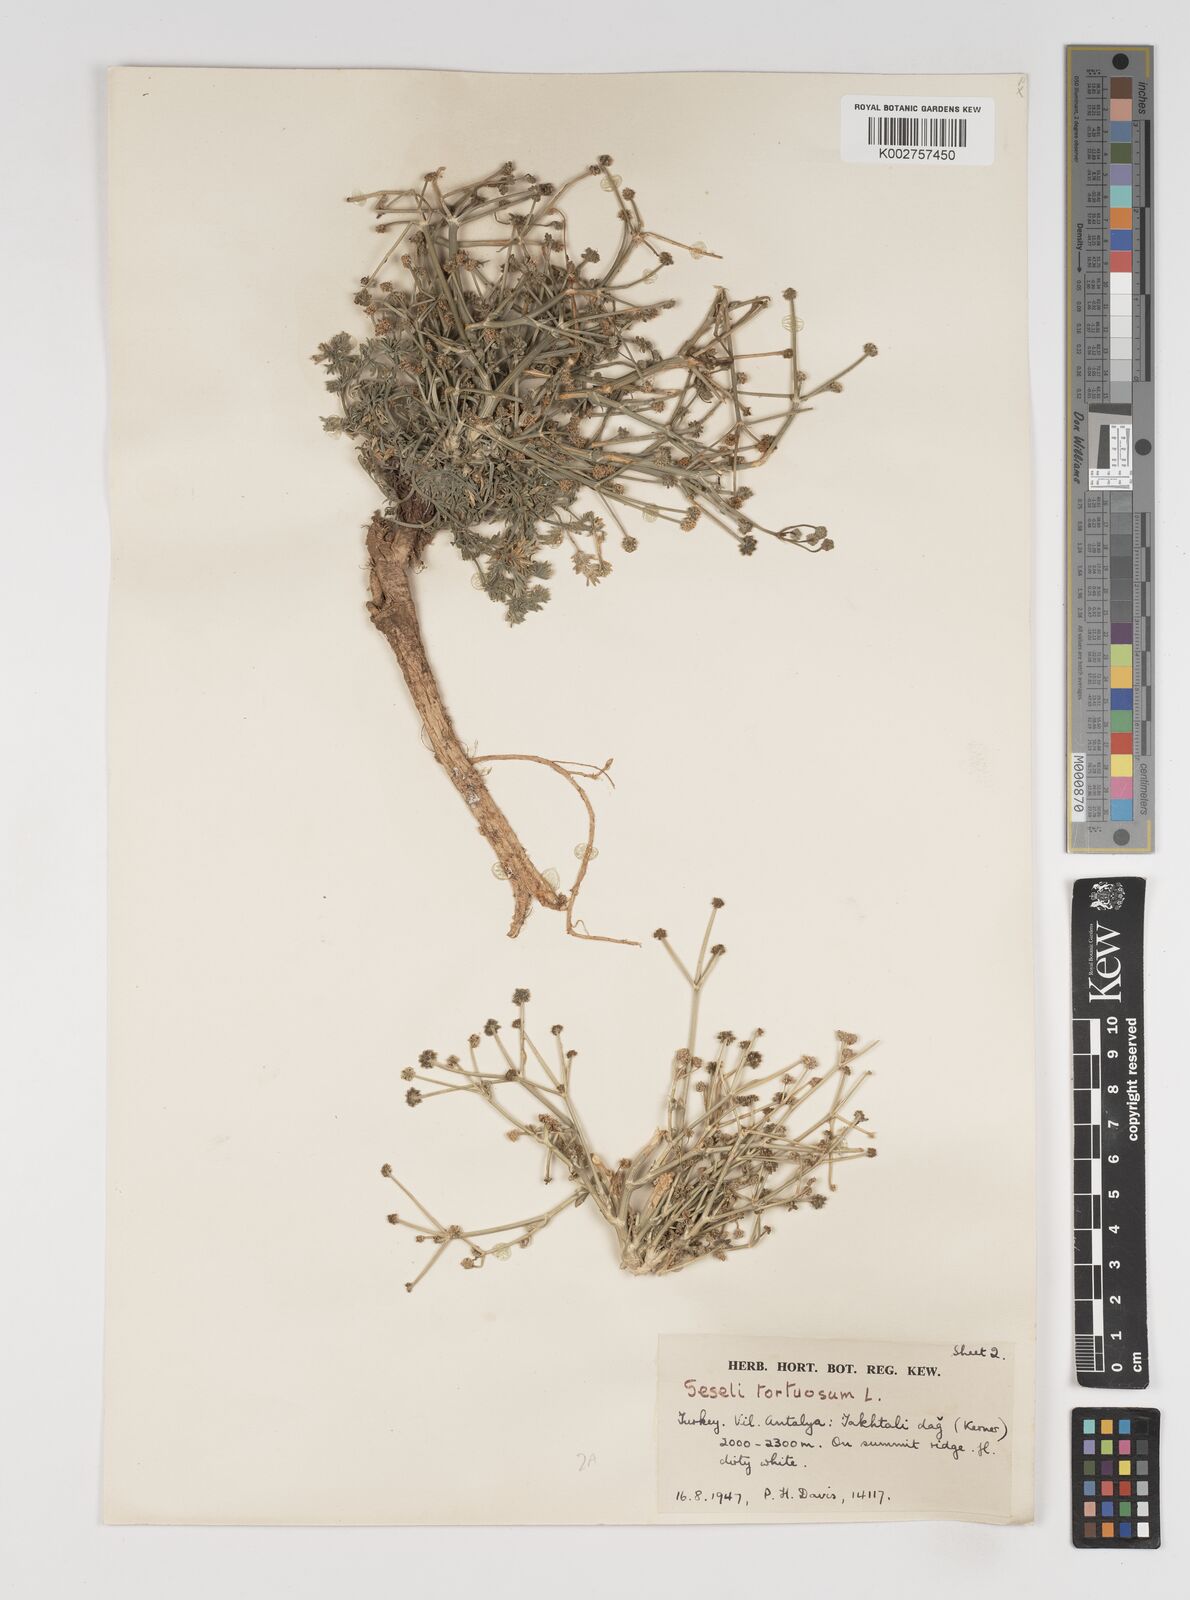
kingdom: Plantae
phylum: Tracheophyta
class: Magnoliopsida
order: Apiales
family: Apiaceae
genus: Seseli
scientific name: Seseli hartvigii
